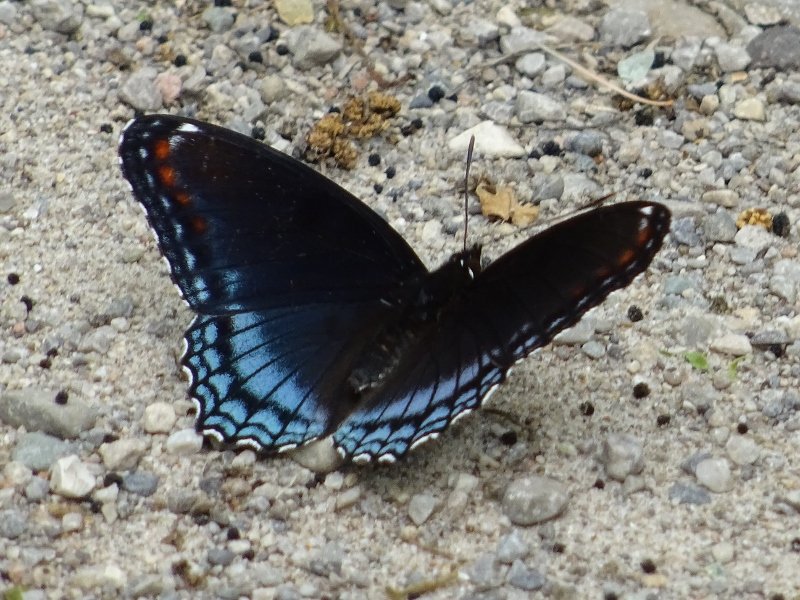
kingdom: Animalia
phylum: Arthropoda
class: Insecta
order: Lepidoptera
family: Nymphalidae
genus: Limenitis
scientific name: Limenitis astyanax
